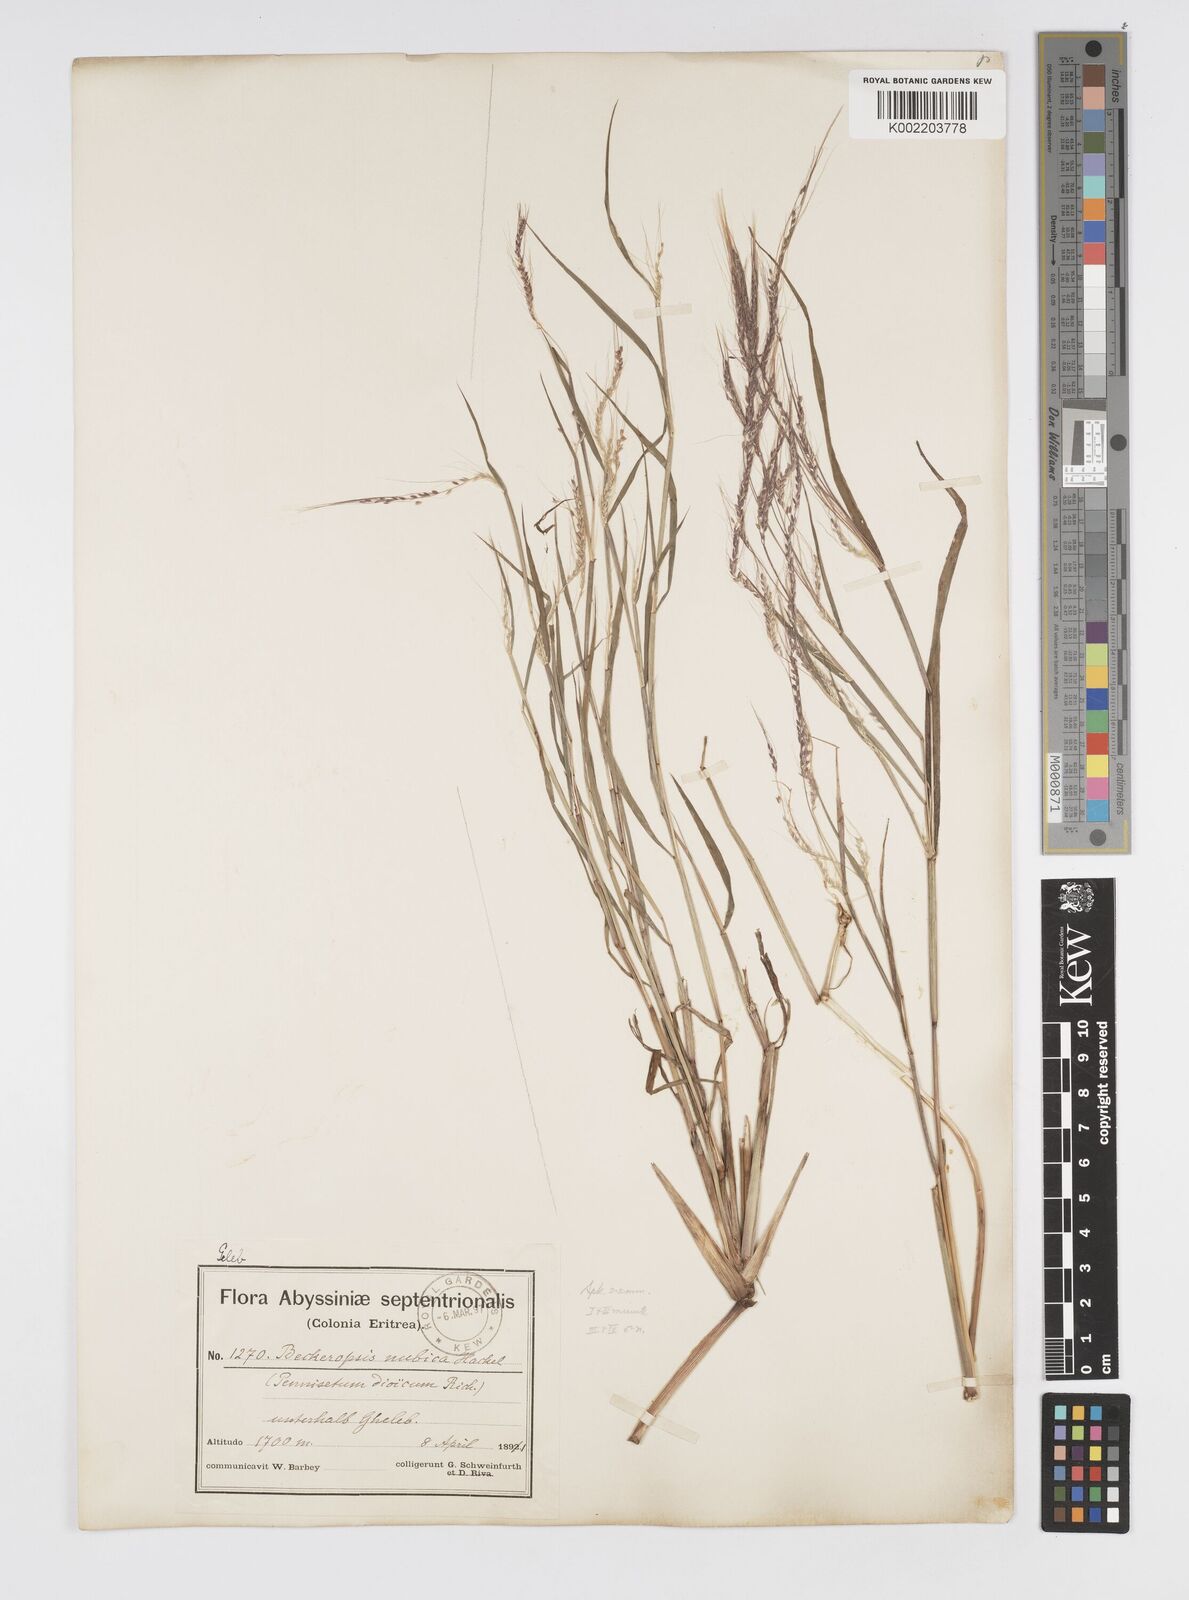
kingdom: Plantae
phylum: Tracheophyta
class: Liliopsida
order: Poales
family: Poaceae
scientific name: Poaceae
